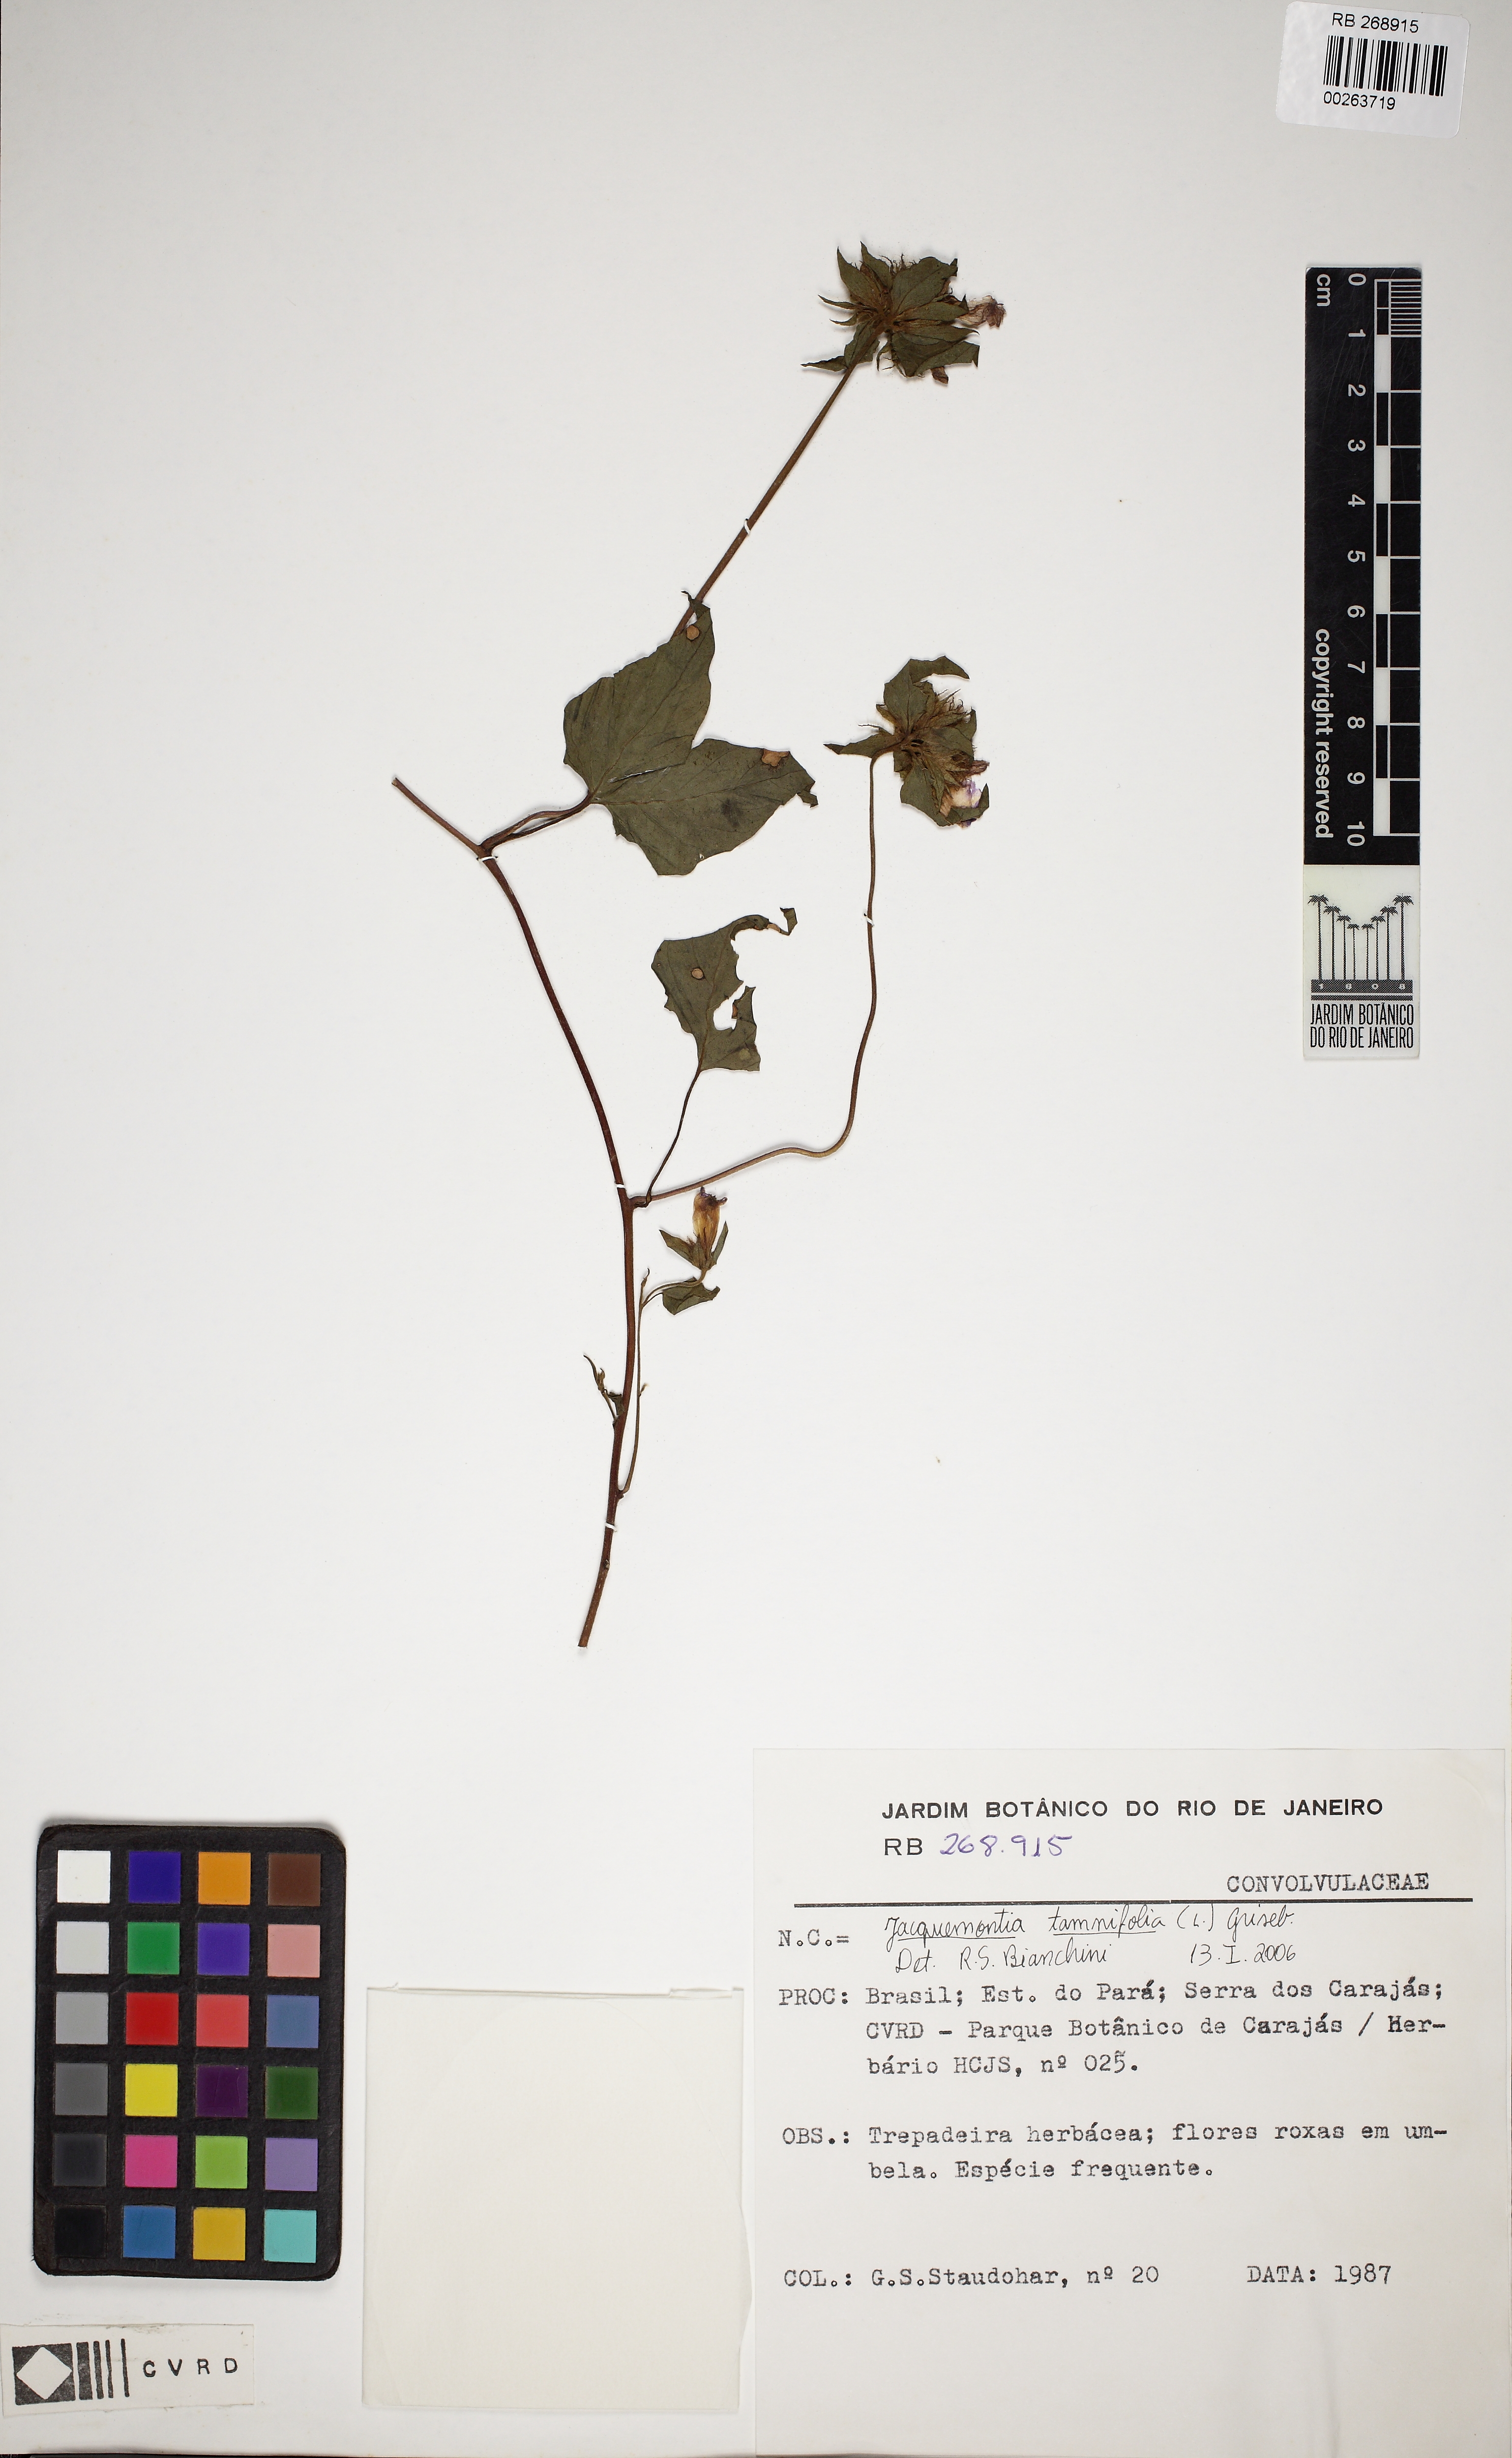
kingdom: Plantae
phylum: Tracheophyta
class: Magnoliopsida
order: Solanales
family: Convolvulaceae
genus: Jacquemontia
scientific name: Jacquemontia tamnifolia
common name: Hairy clustervine
